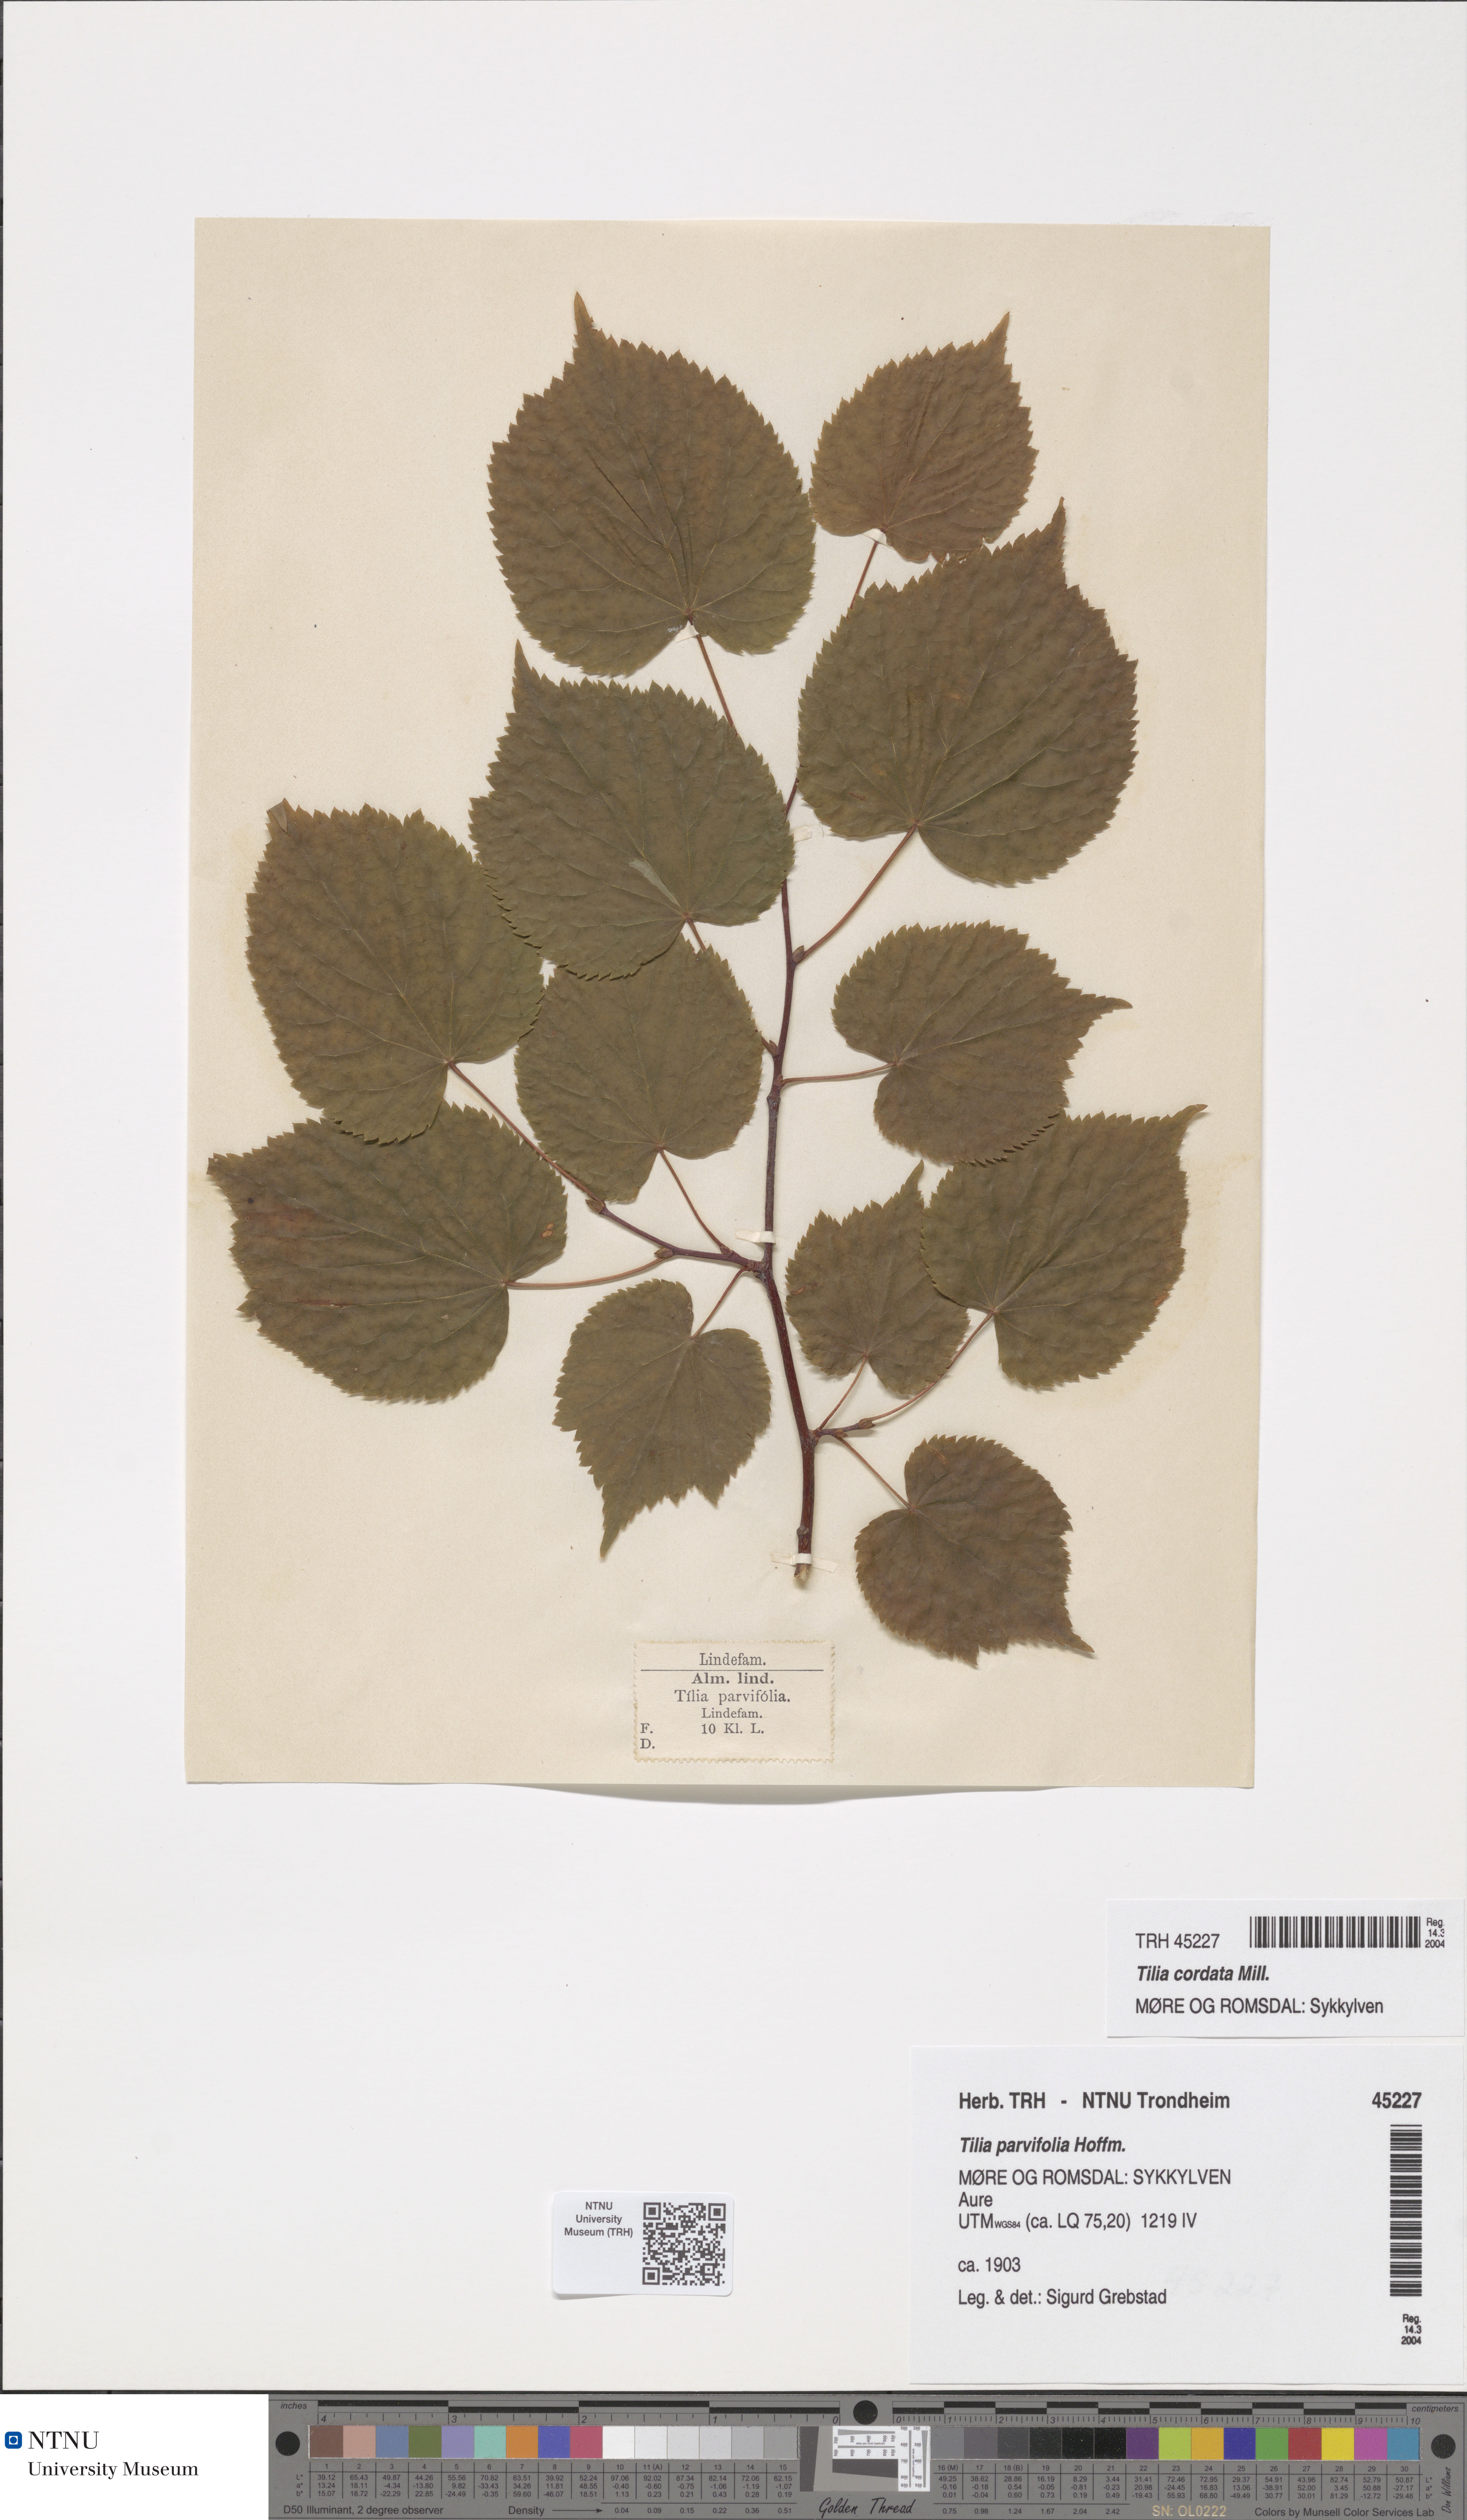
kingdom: Plantae
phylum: Tracheophyta
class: Magnoliopsida
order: Malvales
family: Malvaceae
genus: Tilia
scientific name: Tilia cordata
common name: Small-leaved lime
